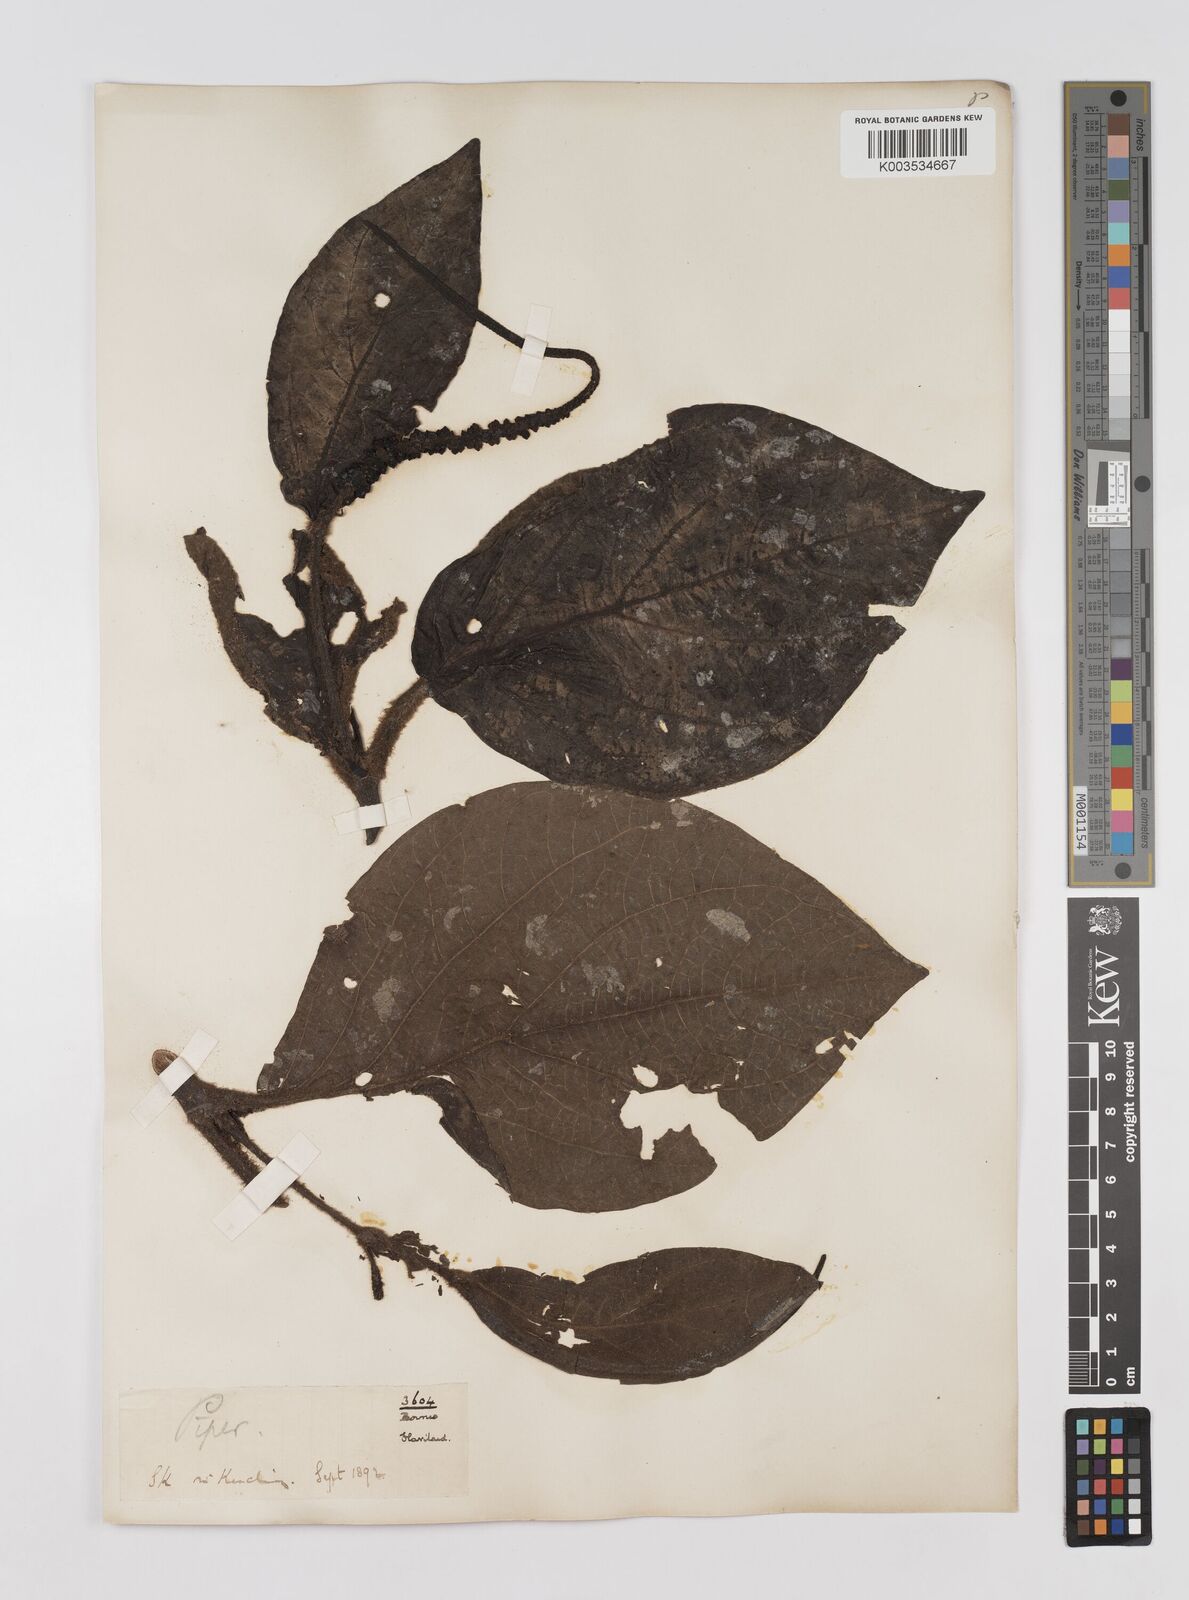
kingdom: Plantae
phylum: Tracheophyta
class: Magnoliopsida
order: Piperales
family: Piperaceae
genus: Piper
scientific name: Piper muricatum
